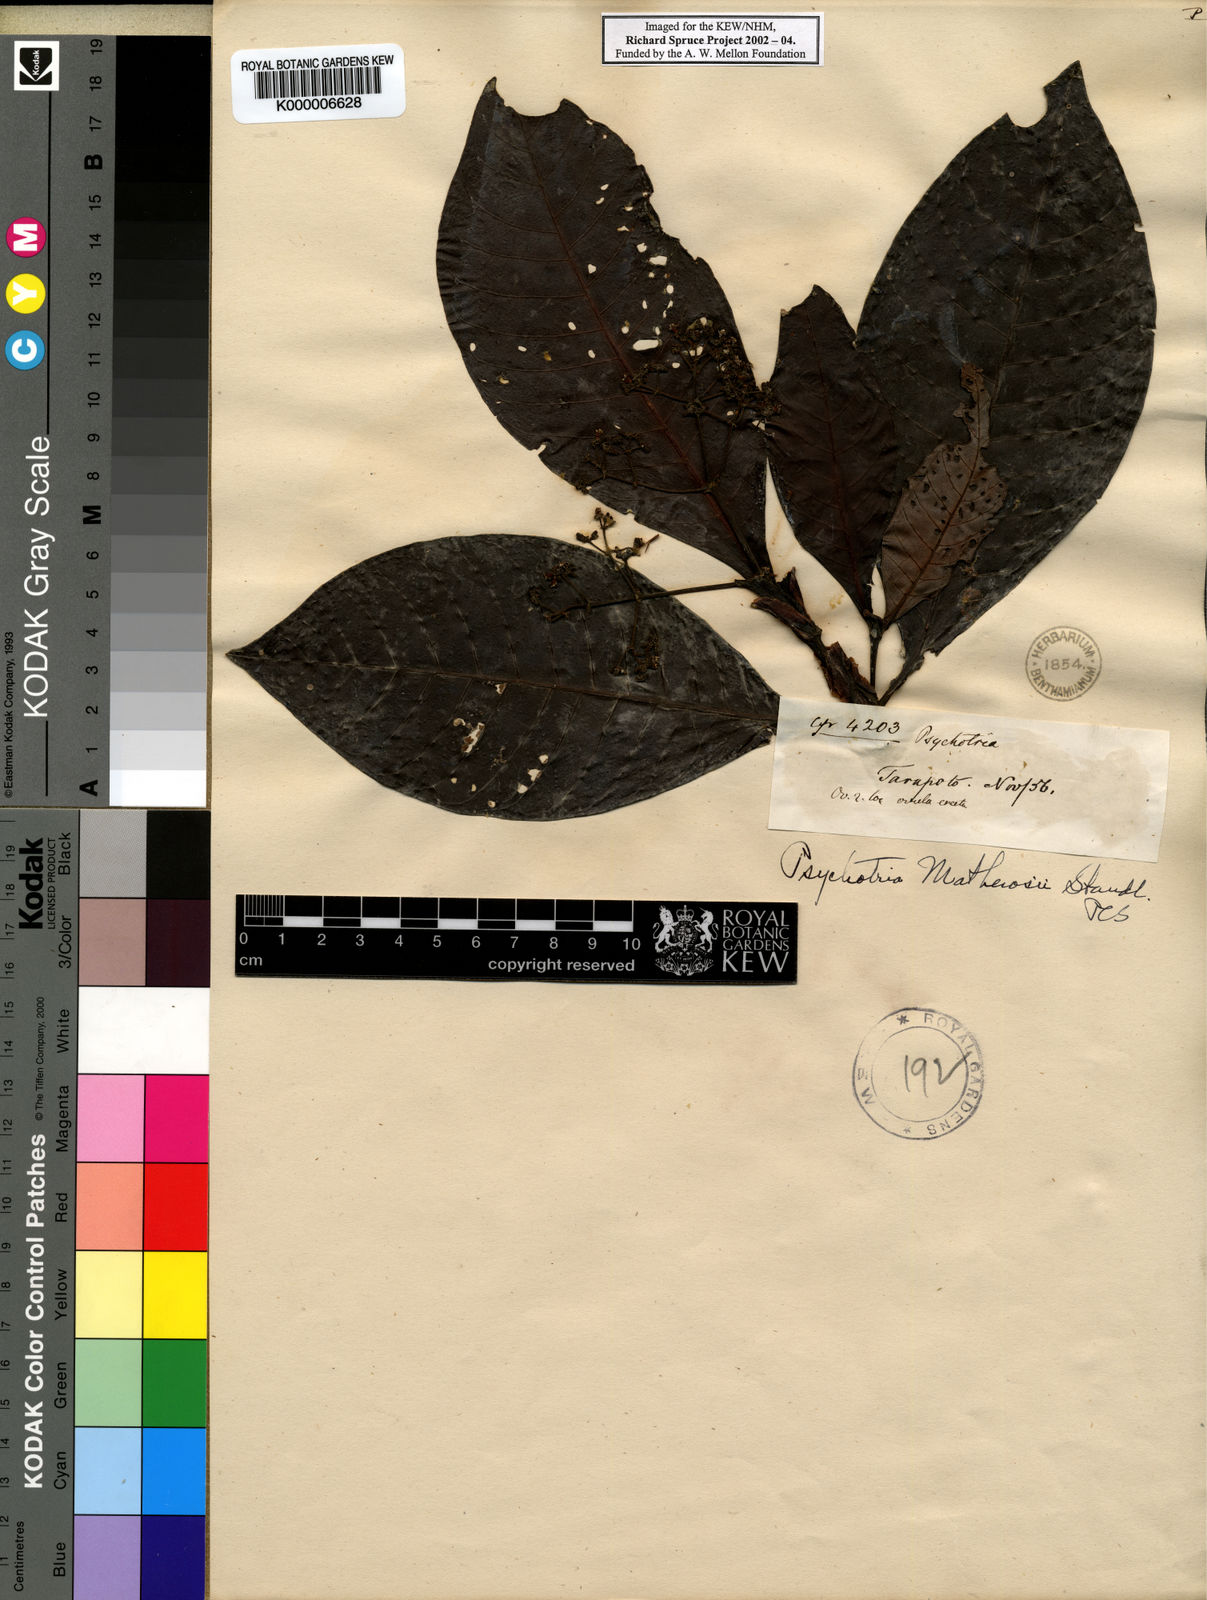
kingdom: Plantae
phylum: Tracheophyta
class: Magnoliopsida
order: Gentianales
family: Rubiaceae
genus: Psychotria
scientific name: Psychotria guianensis
